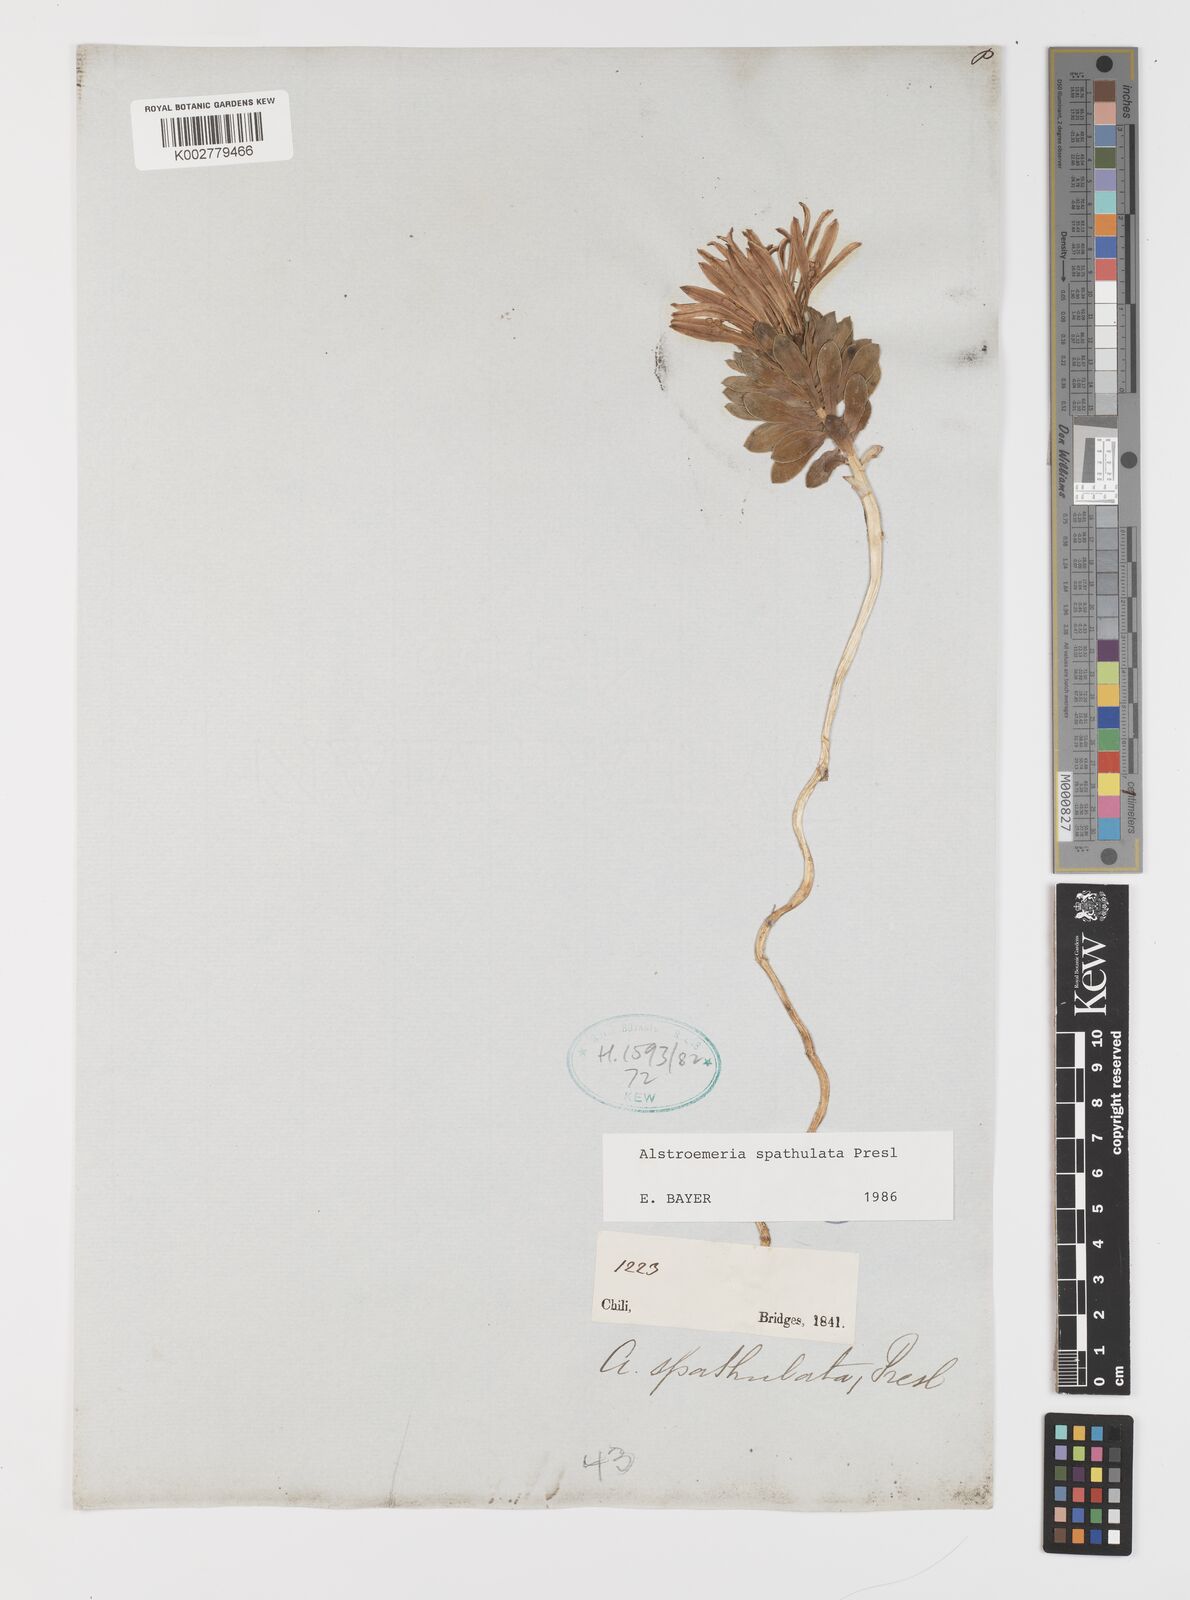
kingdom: Plantae
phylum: Tracheophyta
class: Liliopsida
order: Liliales
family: Alstroemeriaceae
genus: Alstroemeria
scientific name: Alstroemeria spathulata
